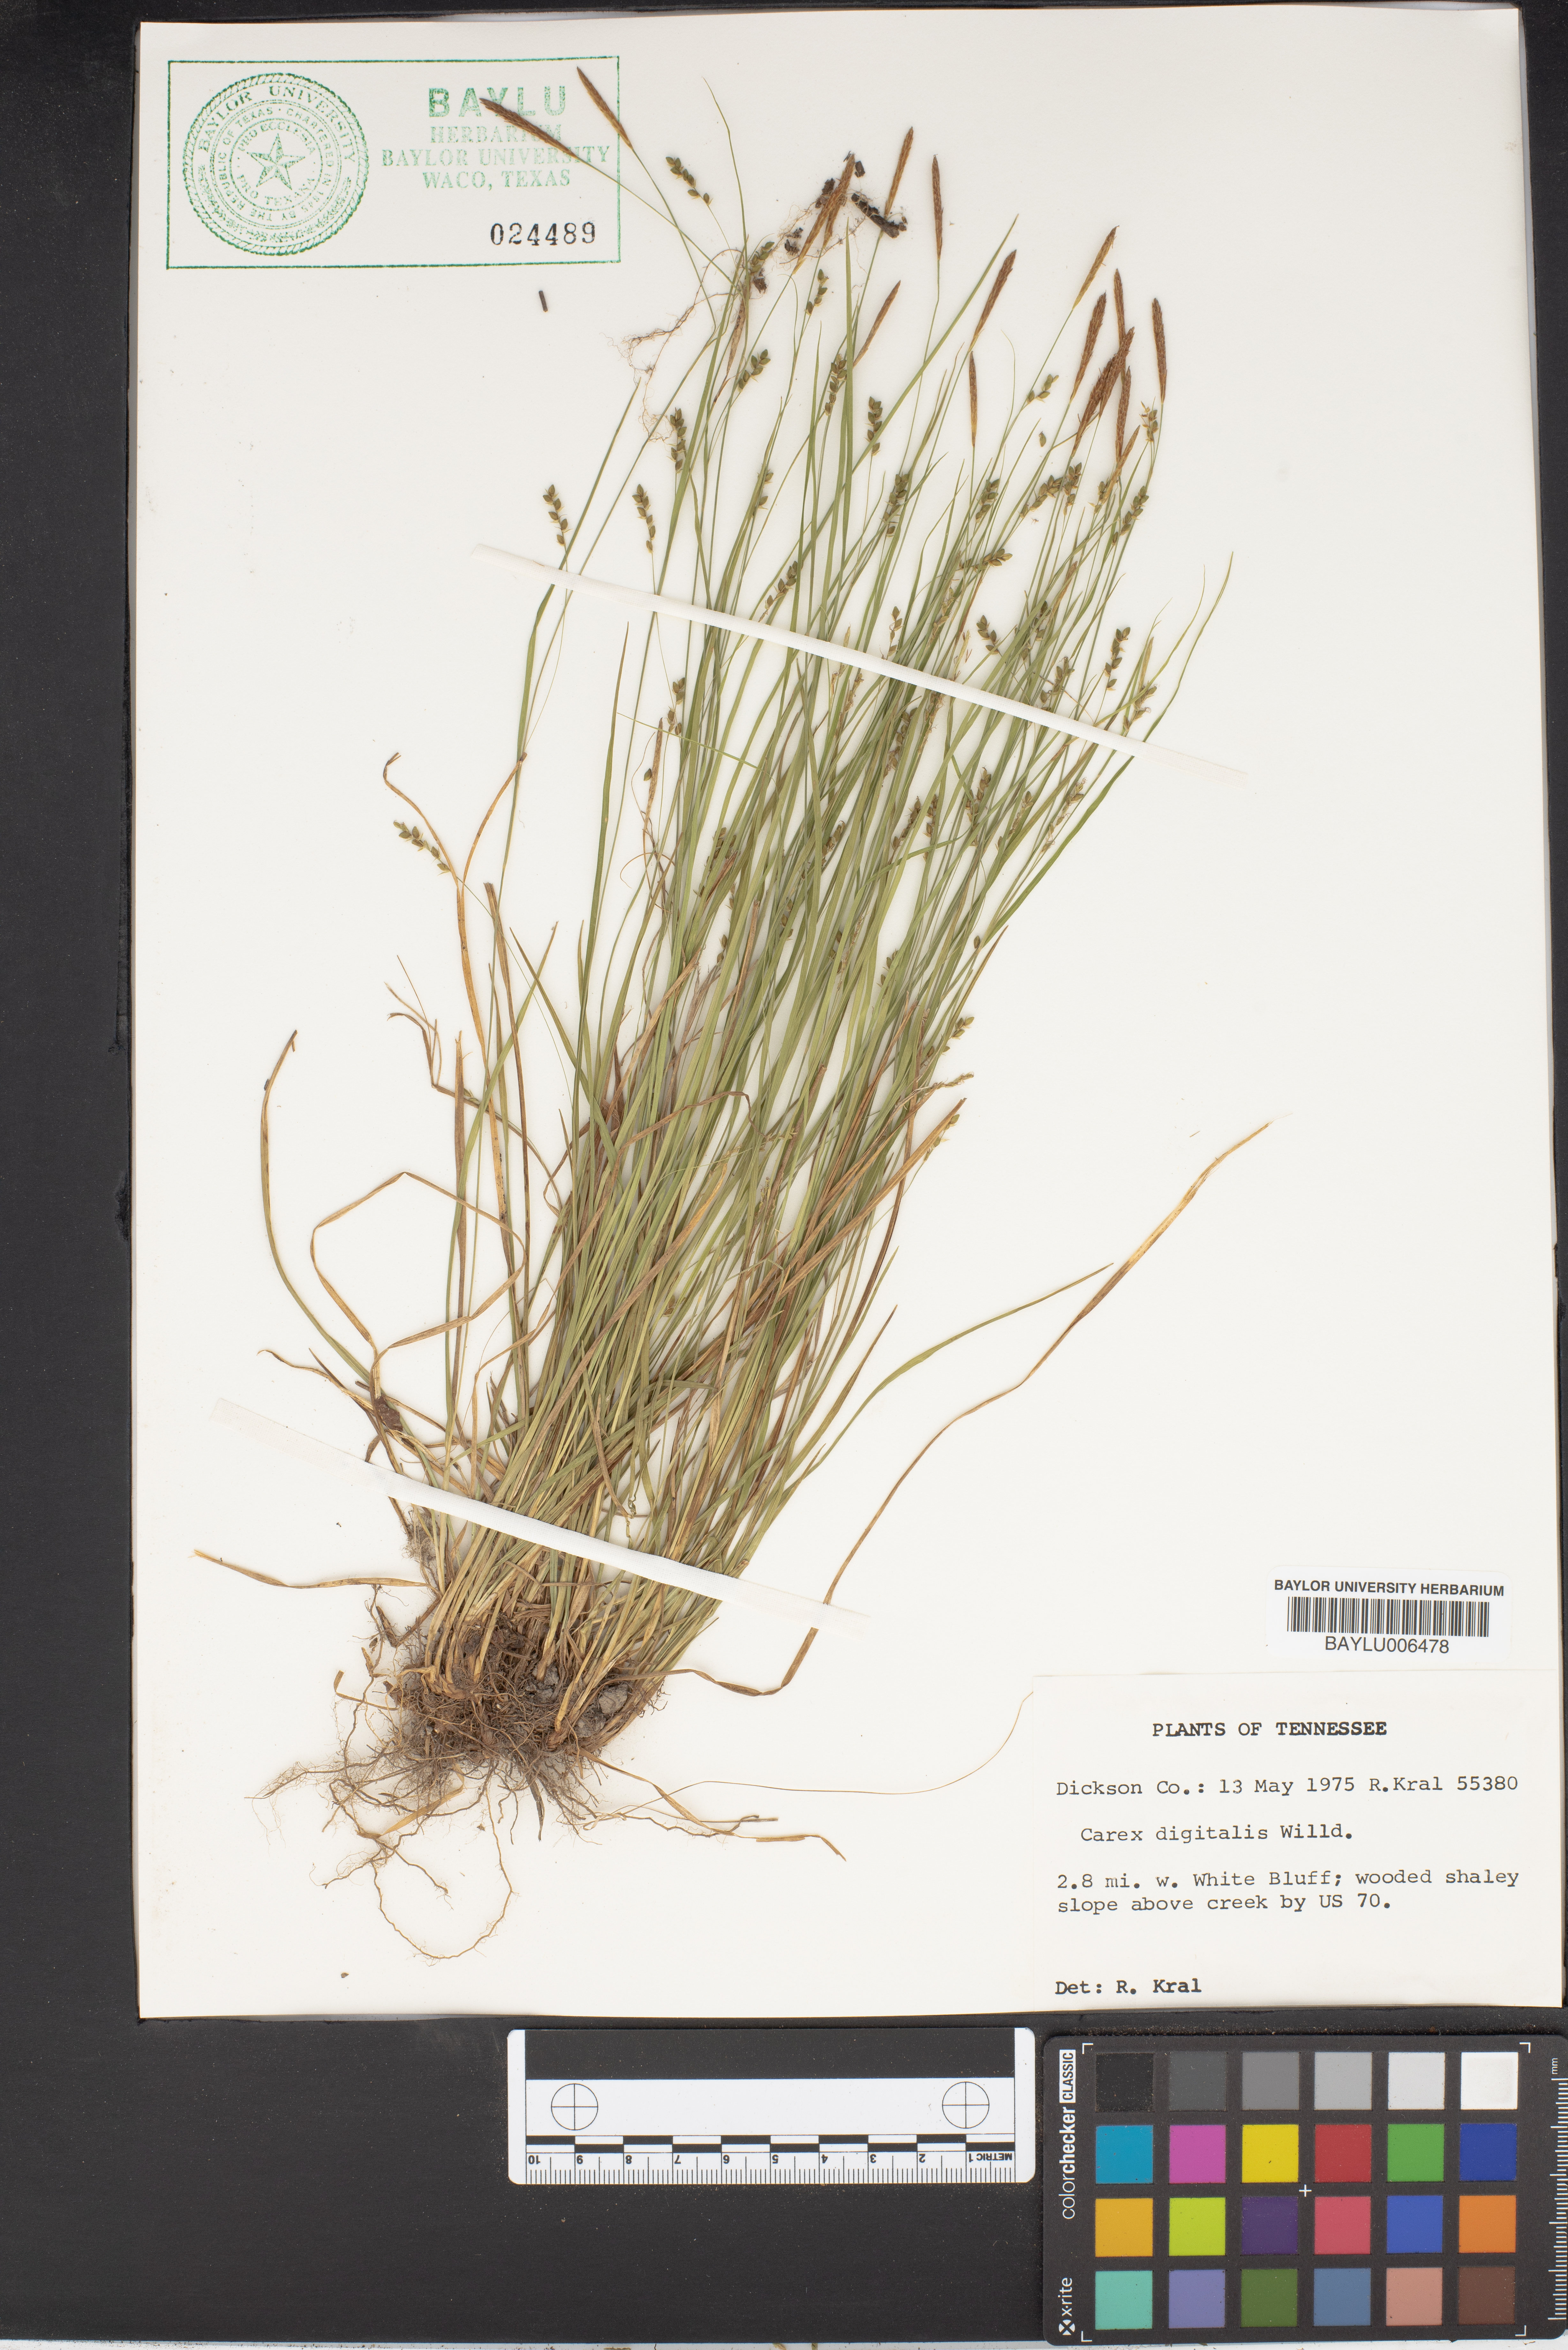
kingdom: Plantae
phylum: Tracheophyta
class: Liliopsida
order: Poales
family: Cyperaceae
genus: Carex
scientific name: Carex digitalis
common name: Slender wood sedge
